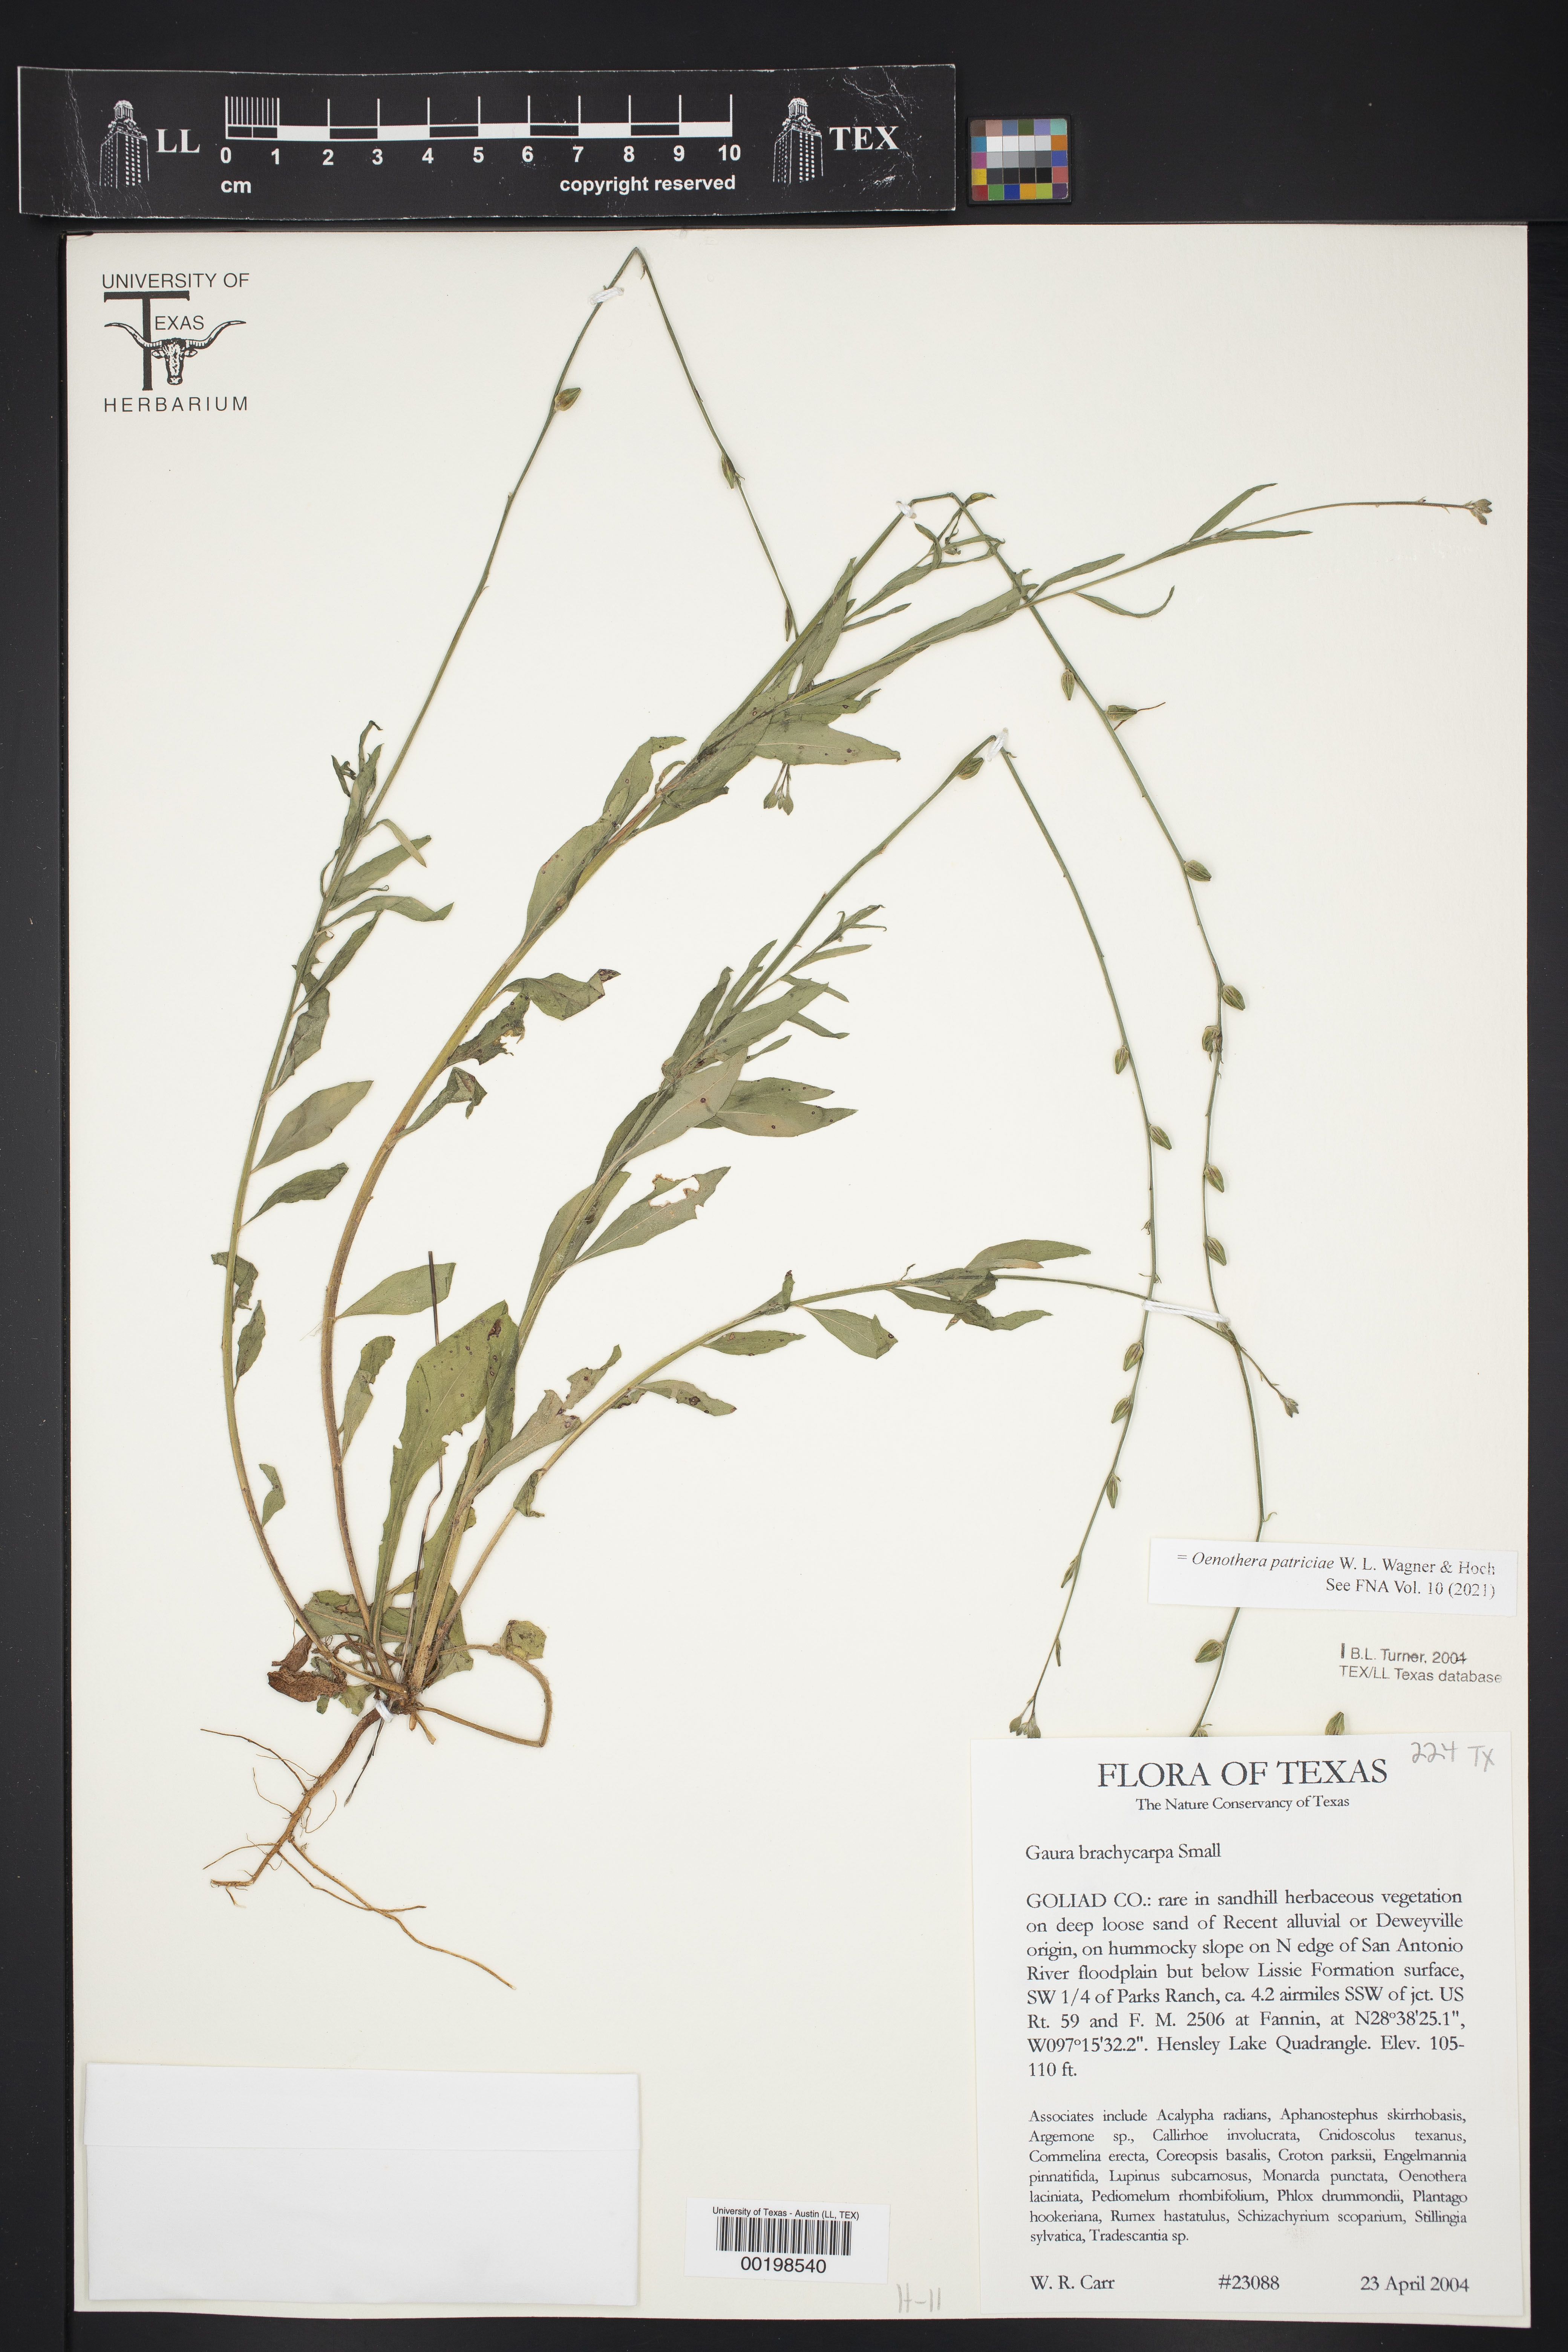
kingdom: Plantae
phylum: Tracheophyta
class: Magnoliopsida
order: Myrtales
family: Onagraceae
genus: Oenothera
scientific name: Oenothera patriciae
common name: Plains beeblossom
